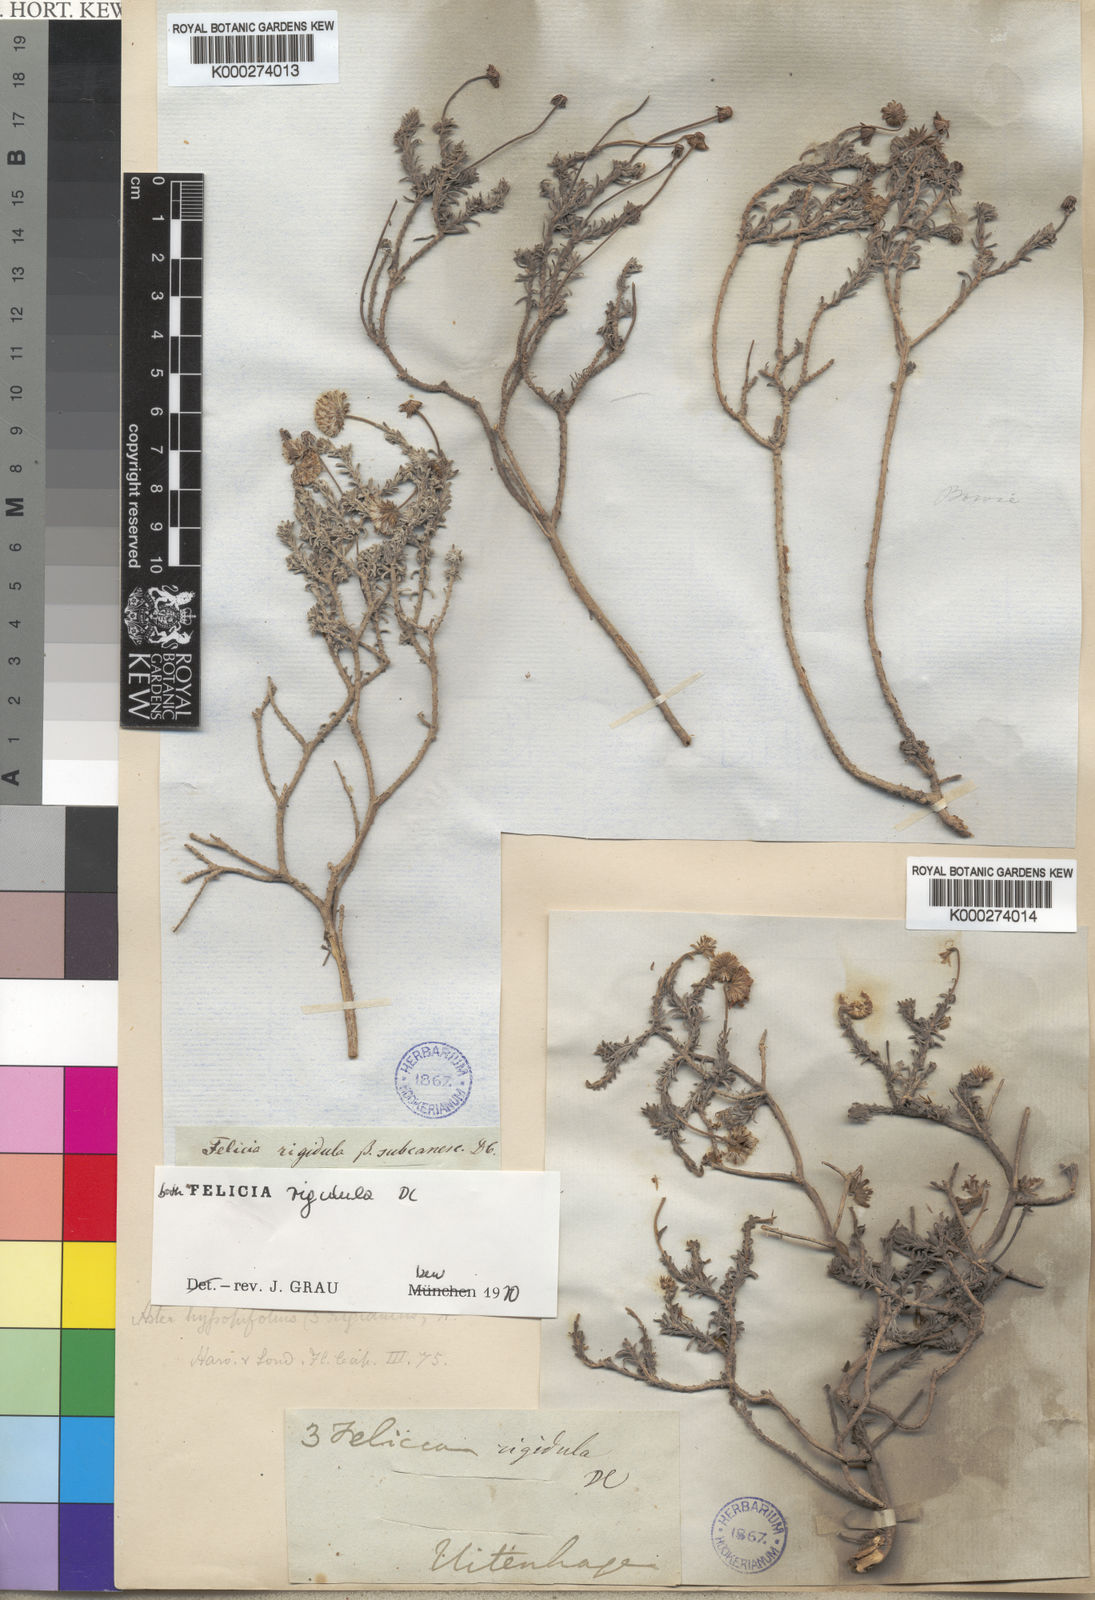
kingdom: Plantae
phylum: Tracheophyta
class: Magnoliopsida
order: Asterales
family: Asteraceae
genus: Chrysocoma
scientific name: Chrysocoma rigidula
